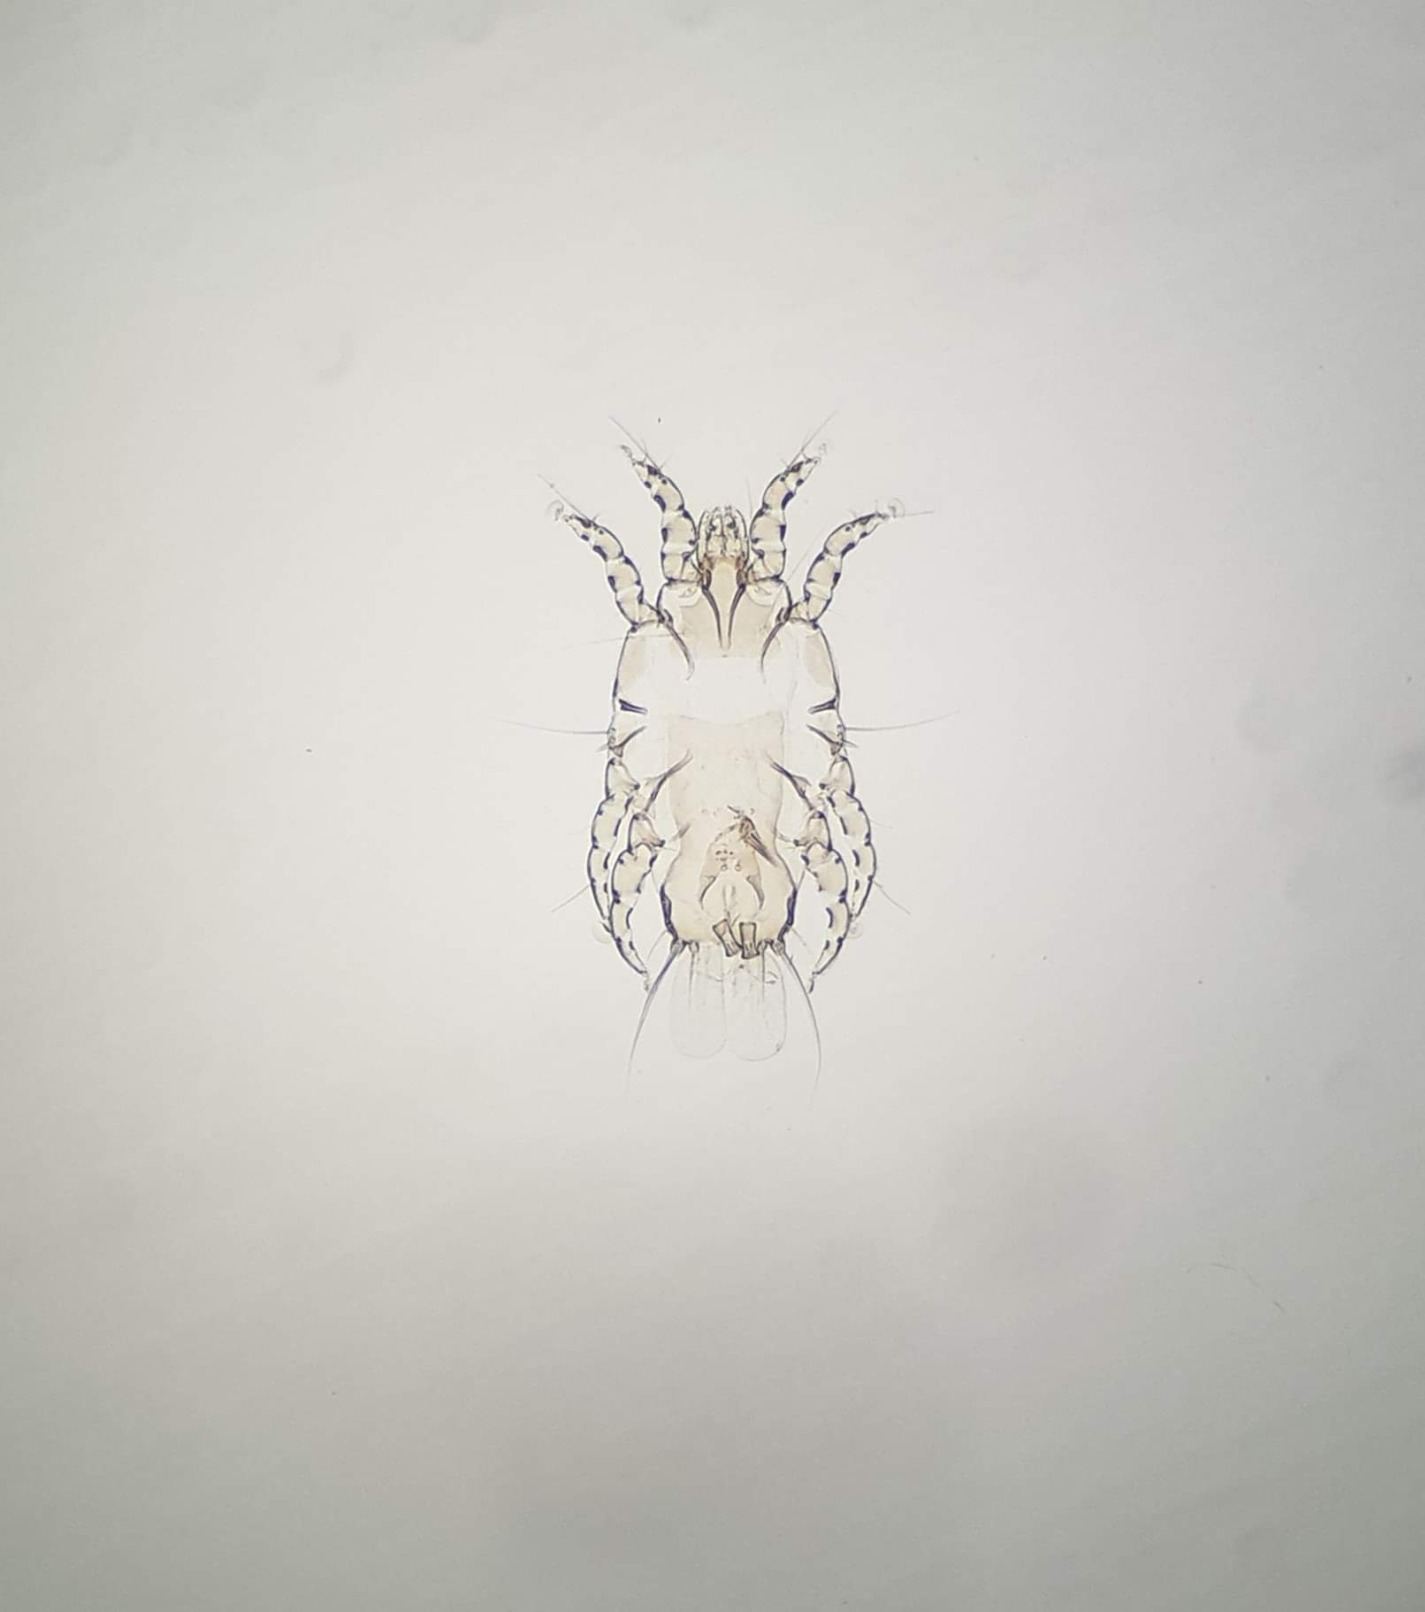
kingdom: Animalia
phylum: Arthropoda
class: Arachnida
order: Sarcoptiformes
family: Proctophyllodidae
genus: Proctophyllodes
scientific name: Proctophyllodes ciae
